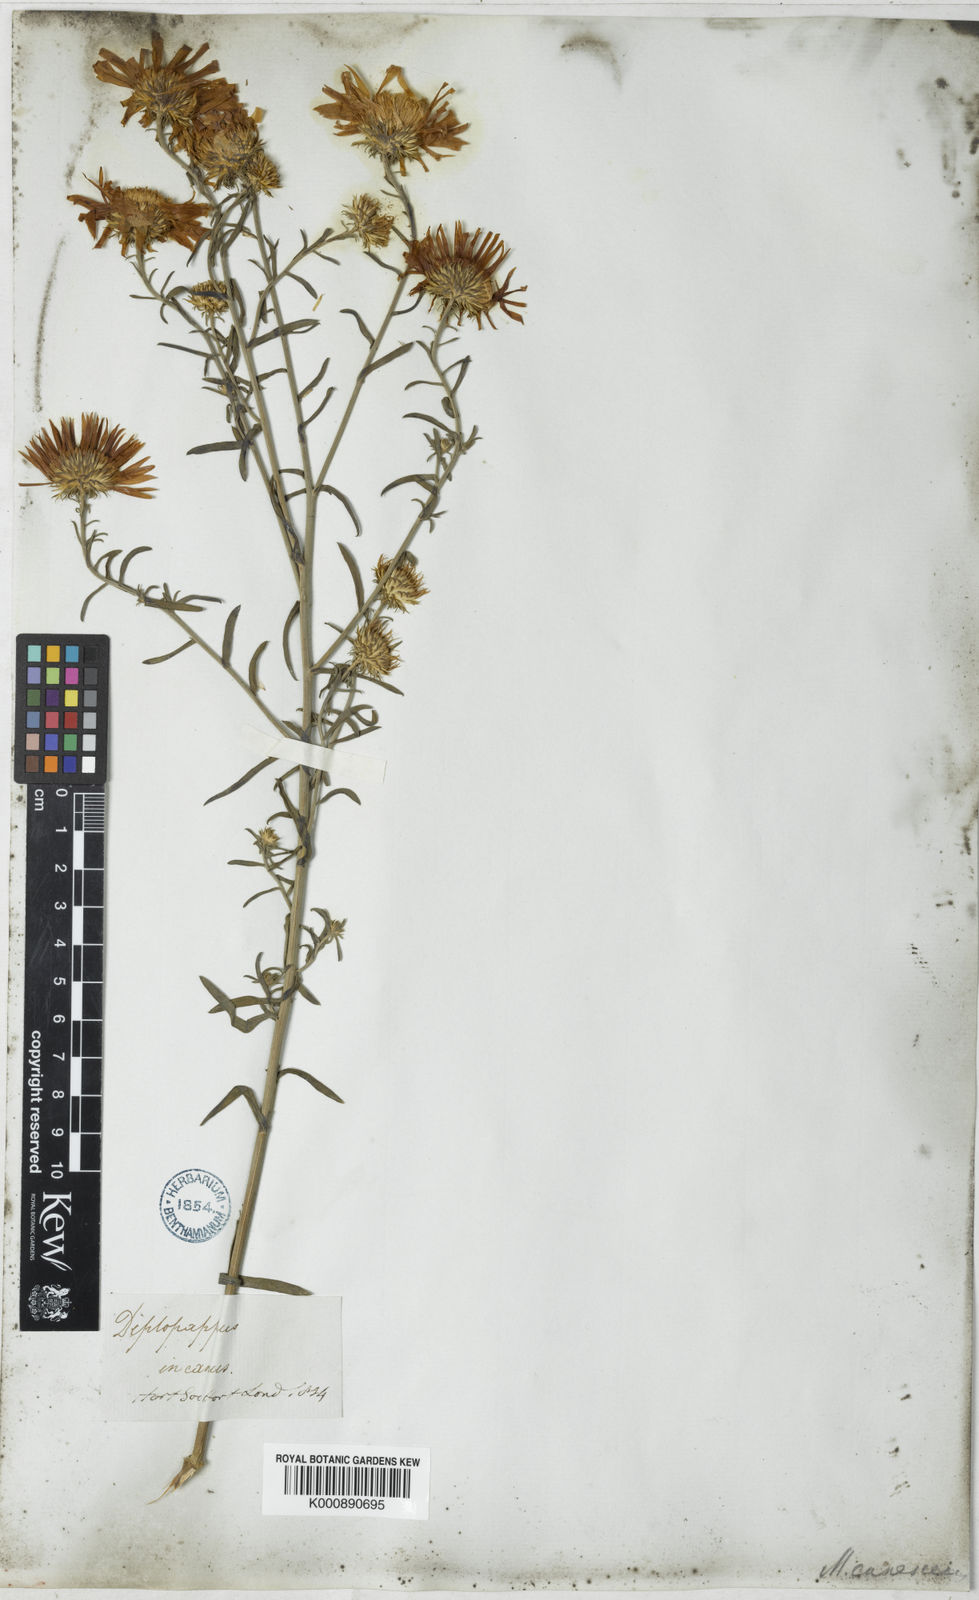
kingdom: Plantae
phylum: Tracheophyta
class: Magnoliopsida
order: Asterales
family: Asteraceae
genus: Dieteria
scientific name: Dieteria canescens
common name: Hoary-aster
